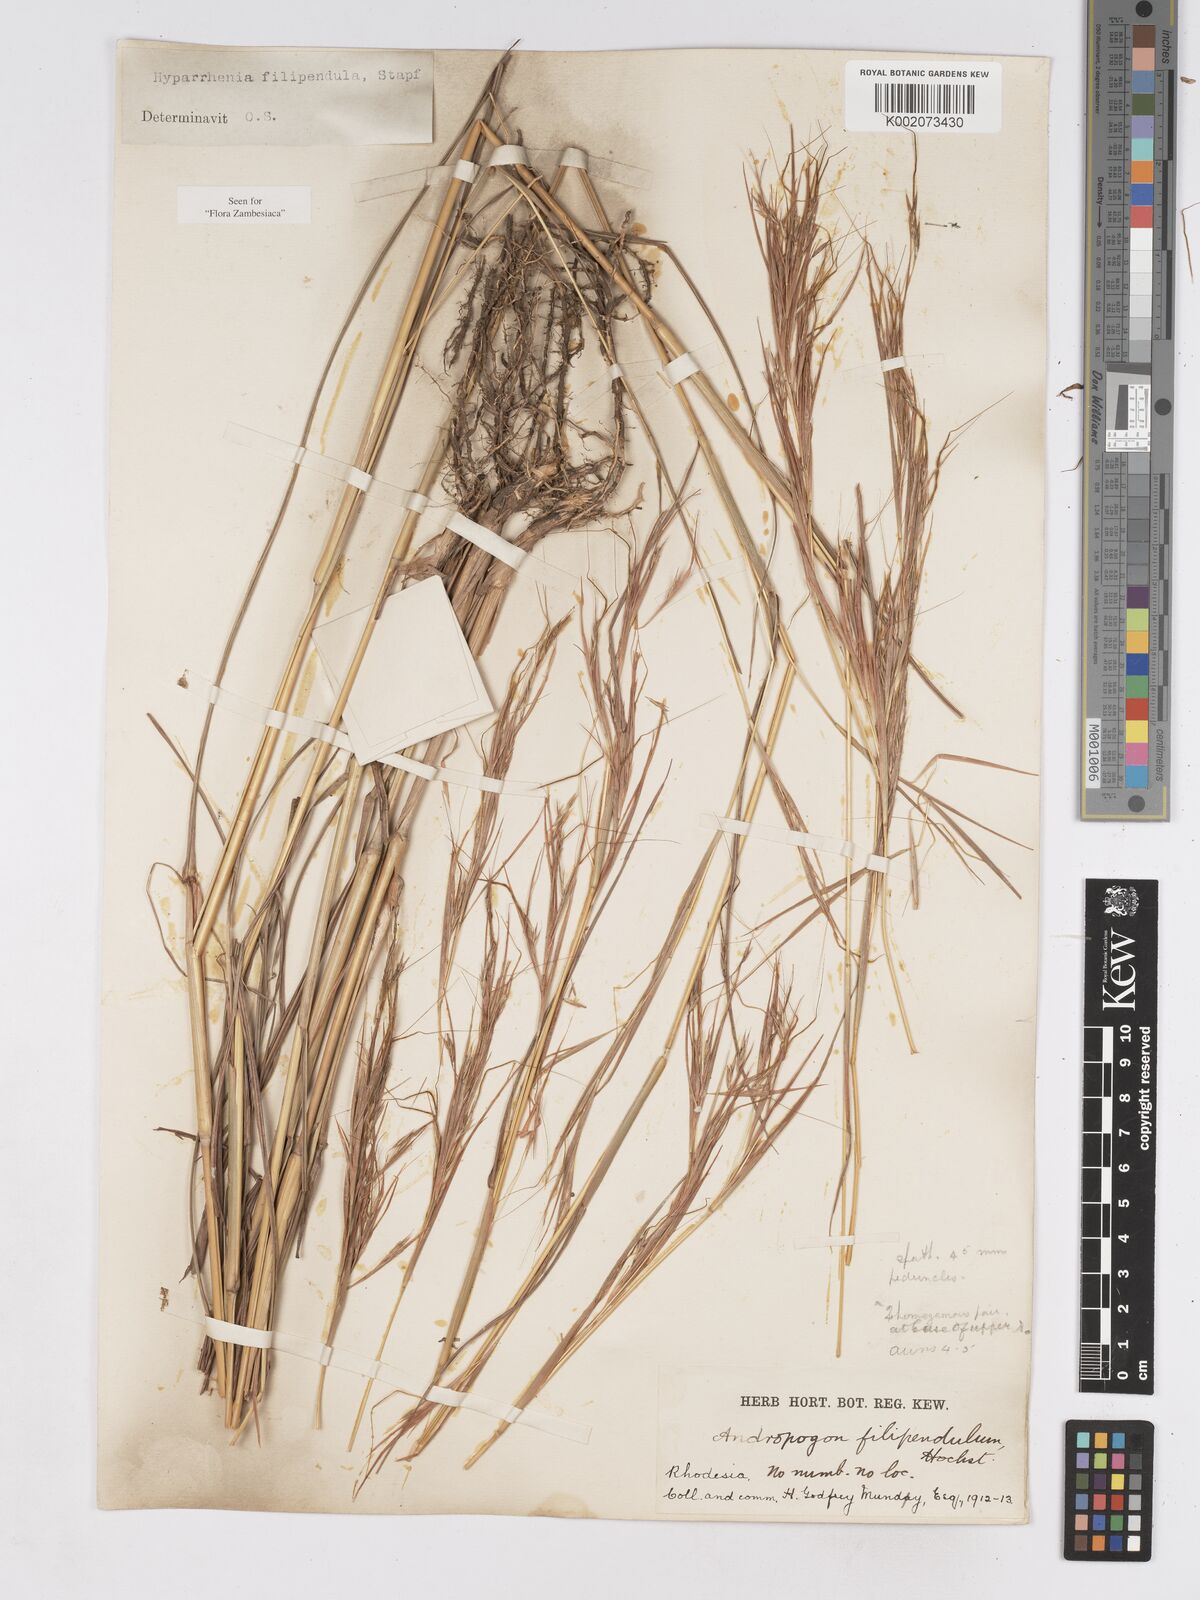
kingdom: Plantae
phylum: Tracheophyta
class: Liliopsida
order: Poales
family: Poaceae
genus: Hyparrhenia
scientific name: Hyparrhenia filipendula
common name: Tambookie grass
